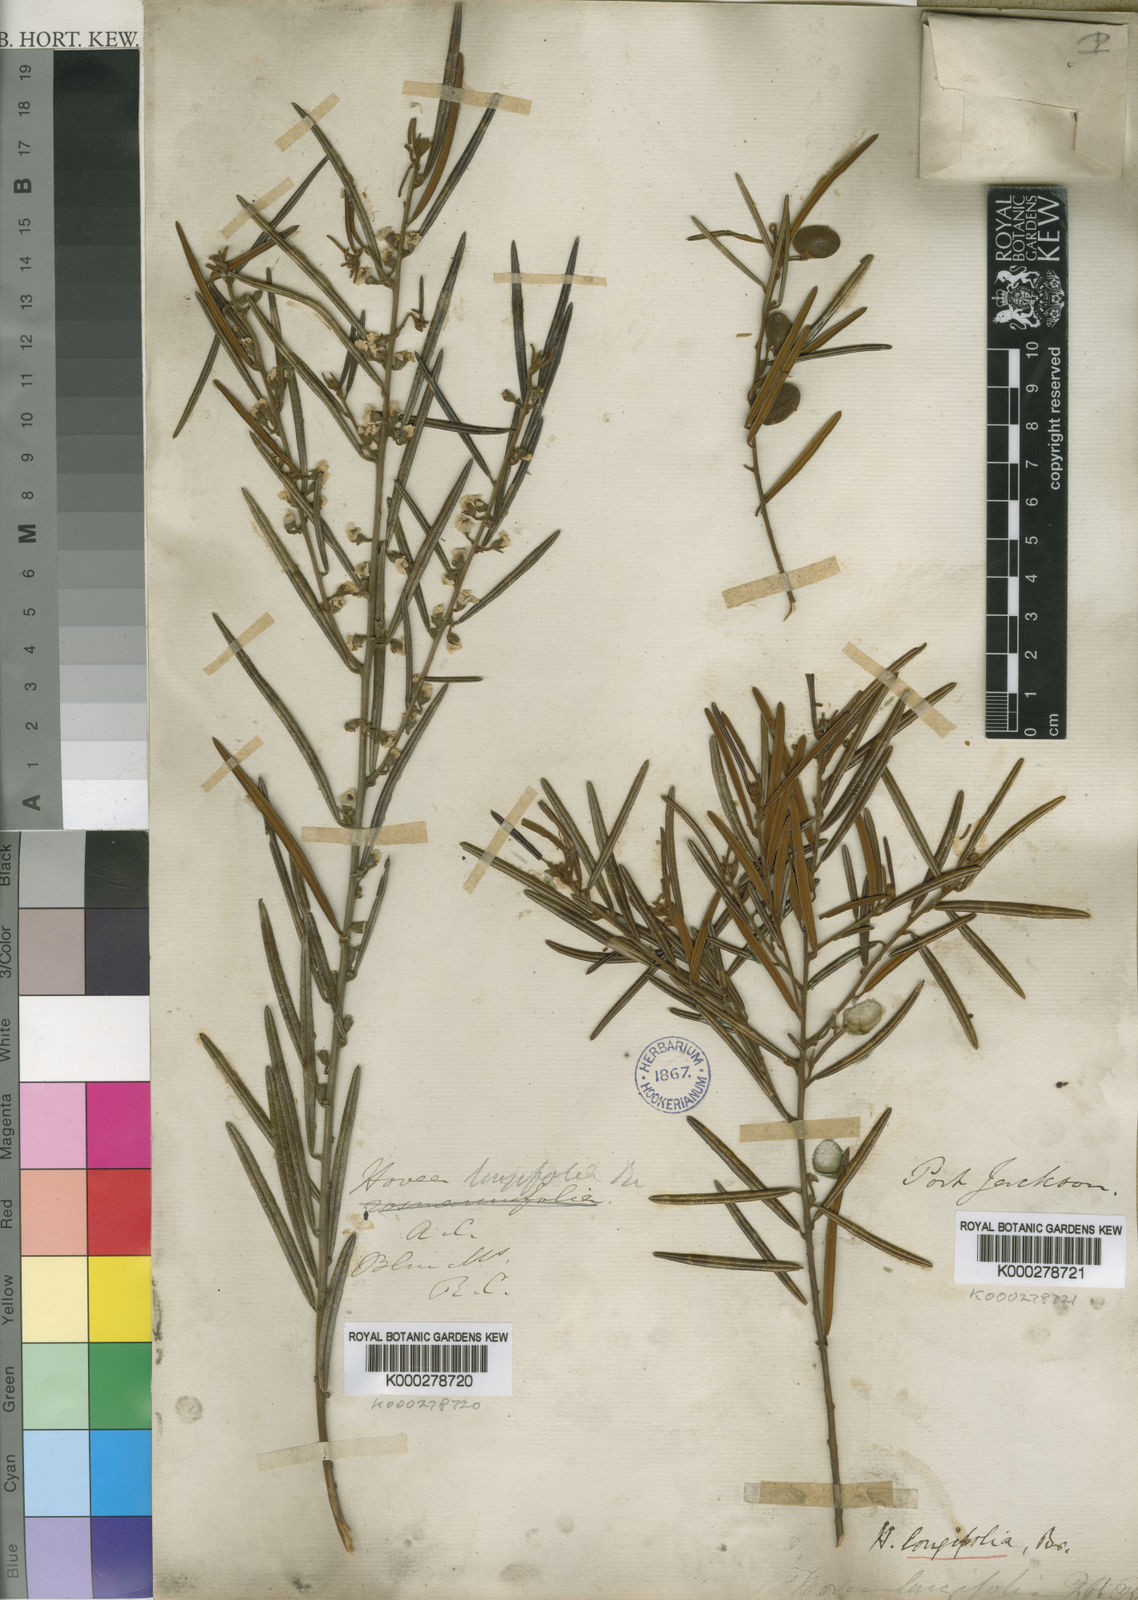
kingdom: Plantae
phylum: Tracheophyta
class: Magnoliopsida
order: Fabales
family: Fabaceae
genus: Hovea
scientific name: Hovea longifolia
